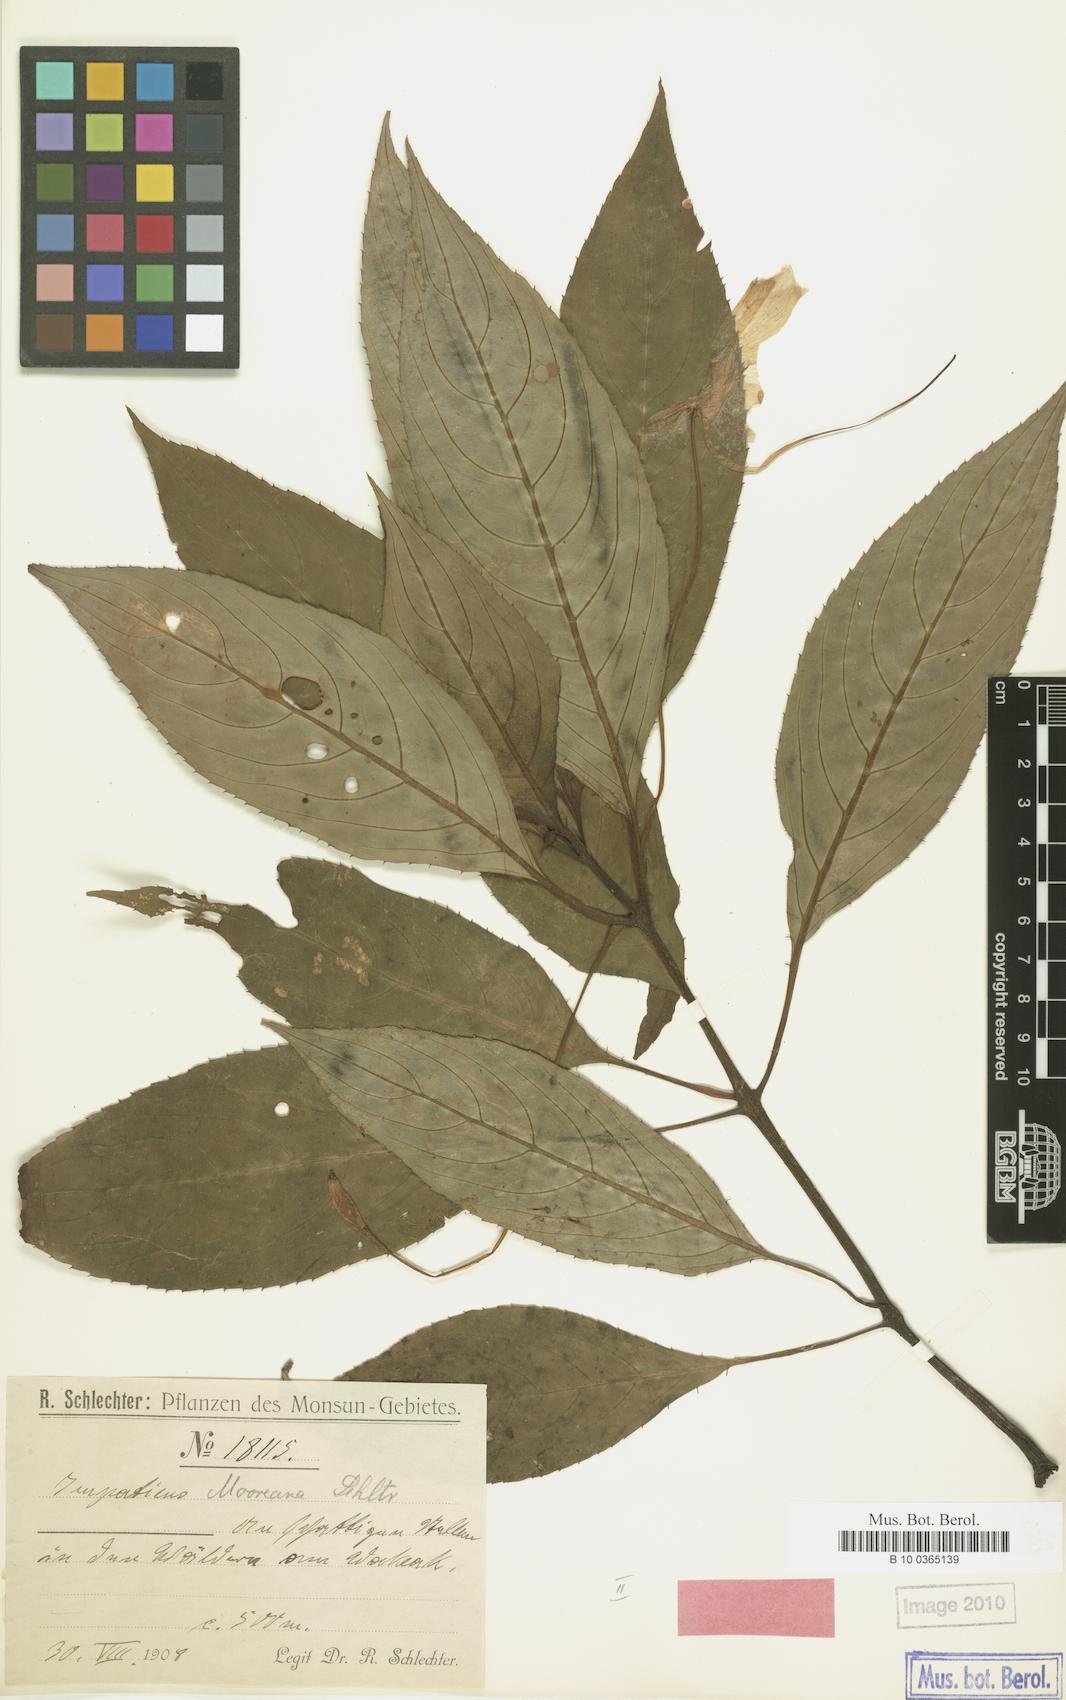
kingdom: Plantae
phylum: Tracheophyta
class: Magnoliopsida
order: Ericales
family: Balsaminaceae
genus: Impatiens
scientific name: Impatiens hawkeri
